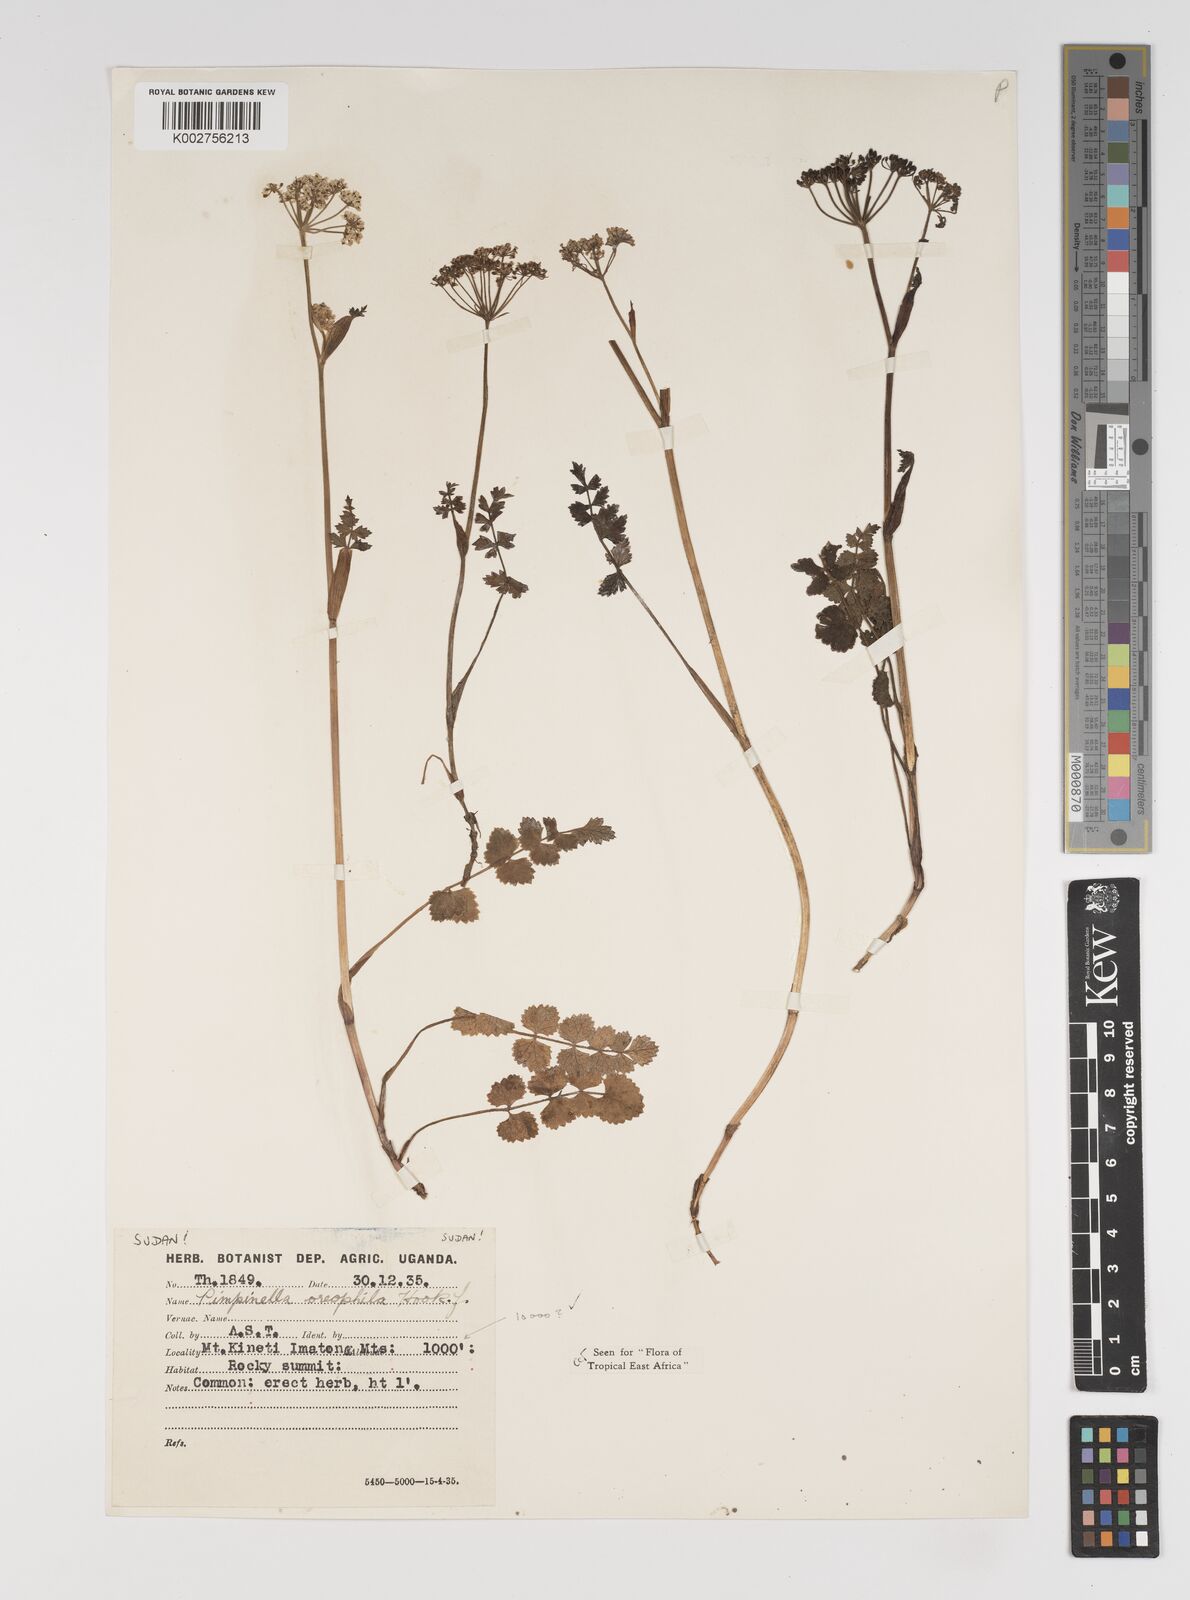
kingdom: Plantae
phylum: Tracheophyta
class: Magnoliopsida
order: Apiales
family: Apiaceae
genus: Pimpinella
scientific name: Pimpinella oreophila
